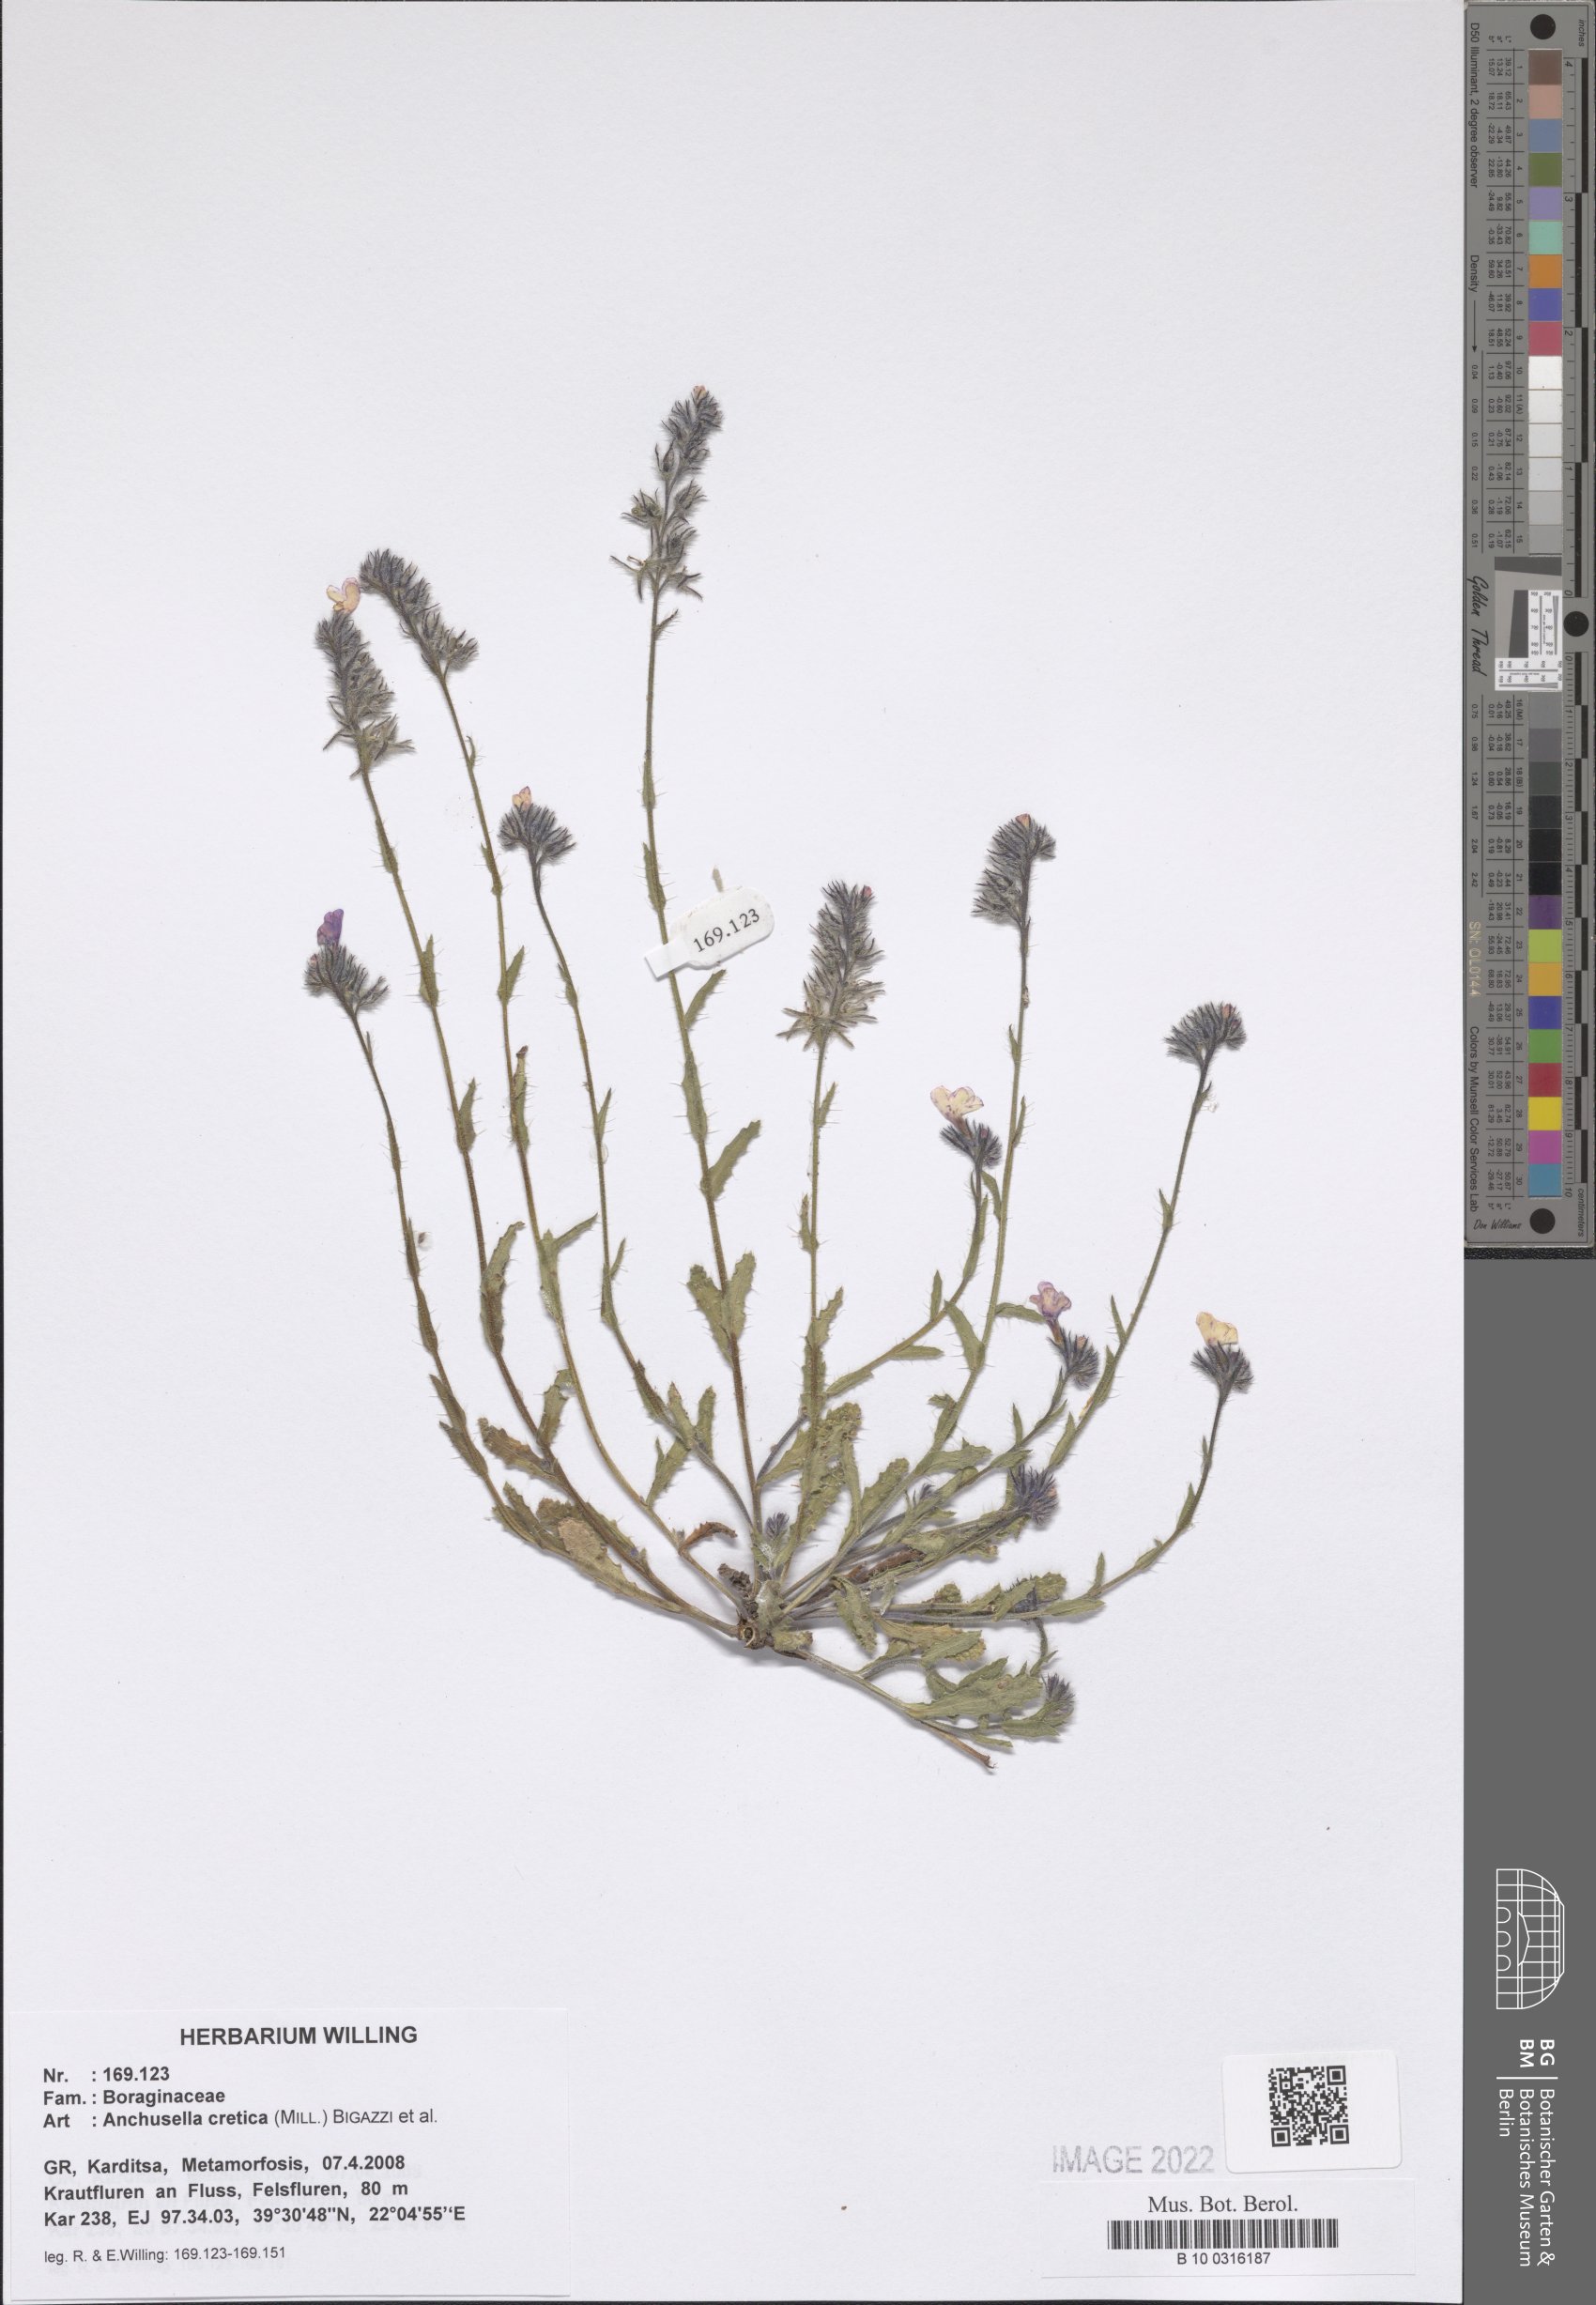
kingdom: Plantae
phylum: Tracheophyta
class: Magnoliopsida
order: Boraginales
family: Boraginaceae
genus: Anchusella
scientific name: Anchusella cretica
